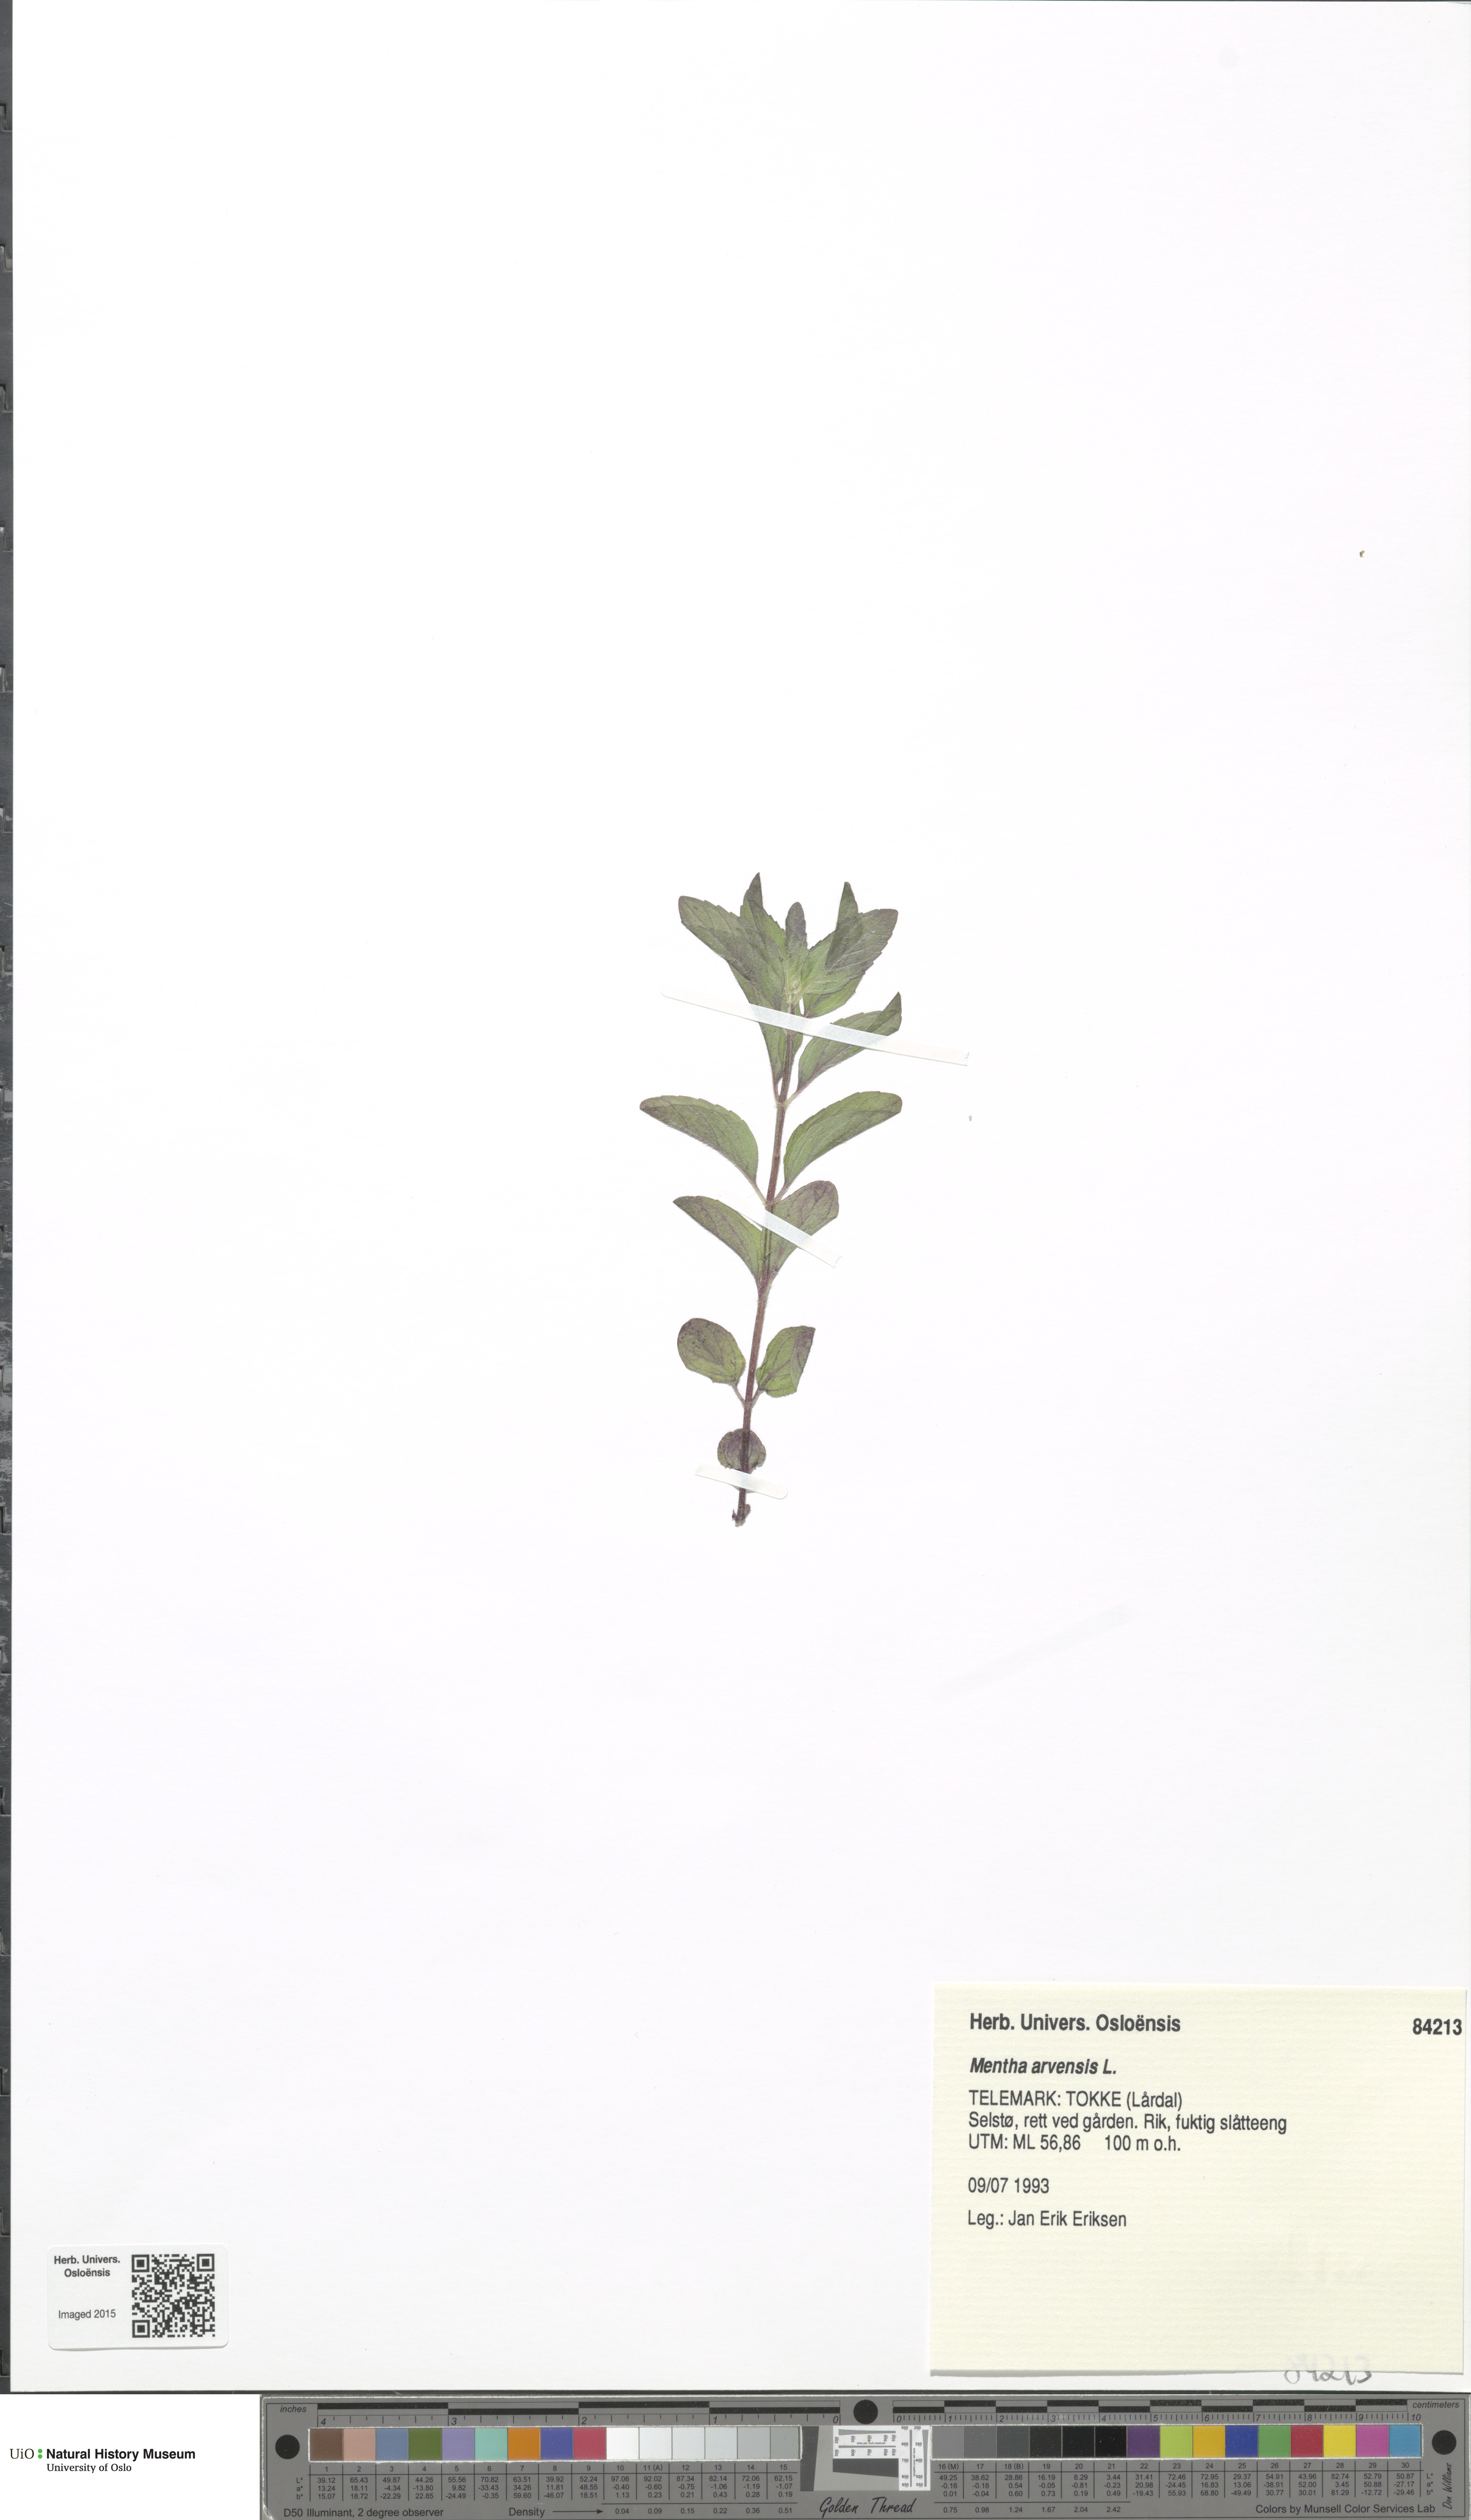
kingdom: Plantae
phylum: Tracheophyta
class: Magnoliopsida
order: Lamiales
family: Lamiaceae
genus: Mentha
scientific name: Mentha arvensis
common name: Corn mint
